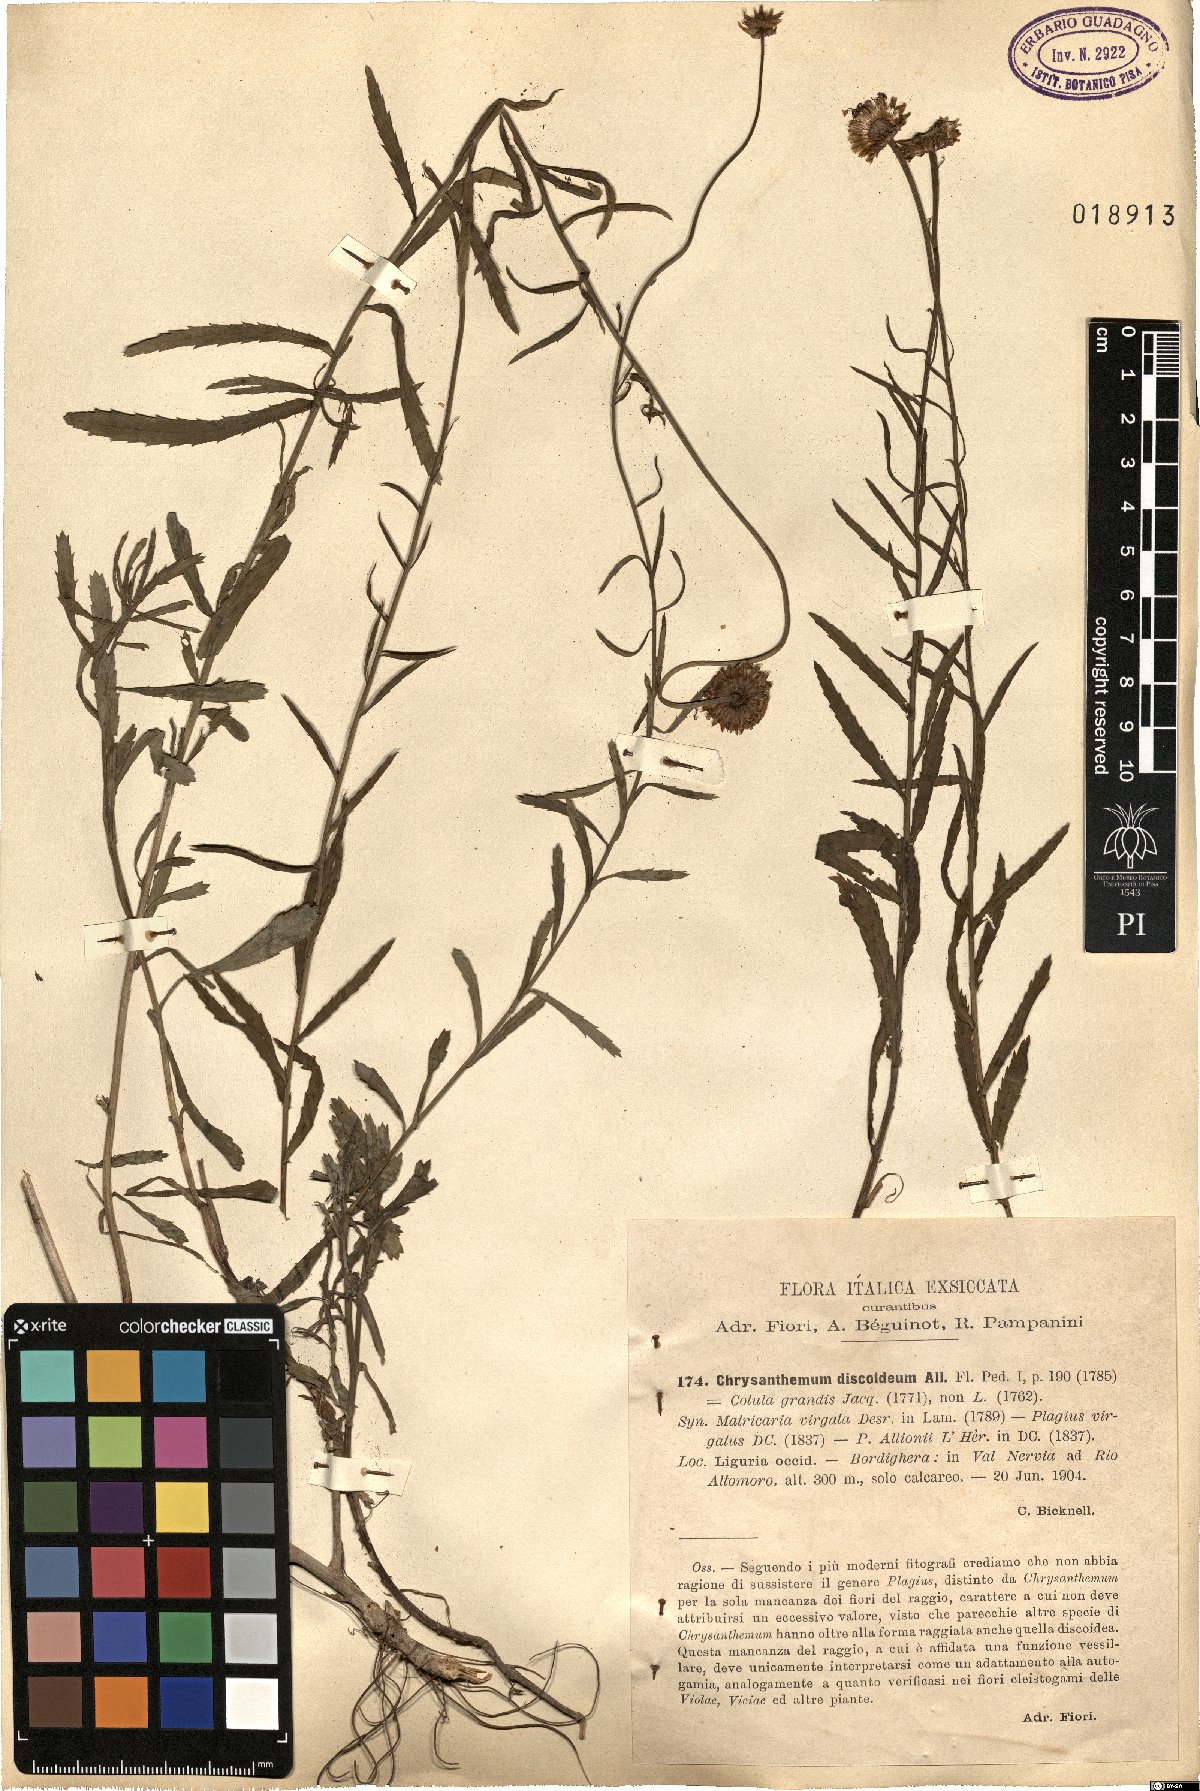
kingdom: Plantae
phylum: Tracheophyta
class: Magnoliopsida
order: Asterales
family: Asteraceae
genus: Plagius
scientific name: Plagius grandis
